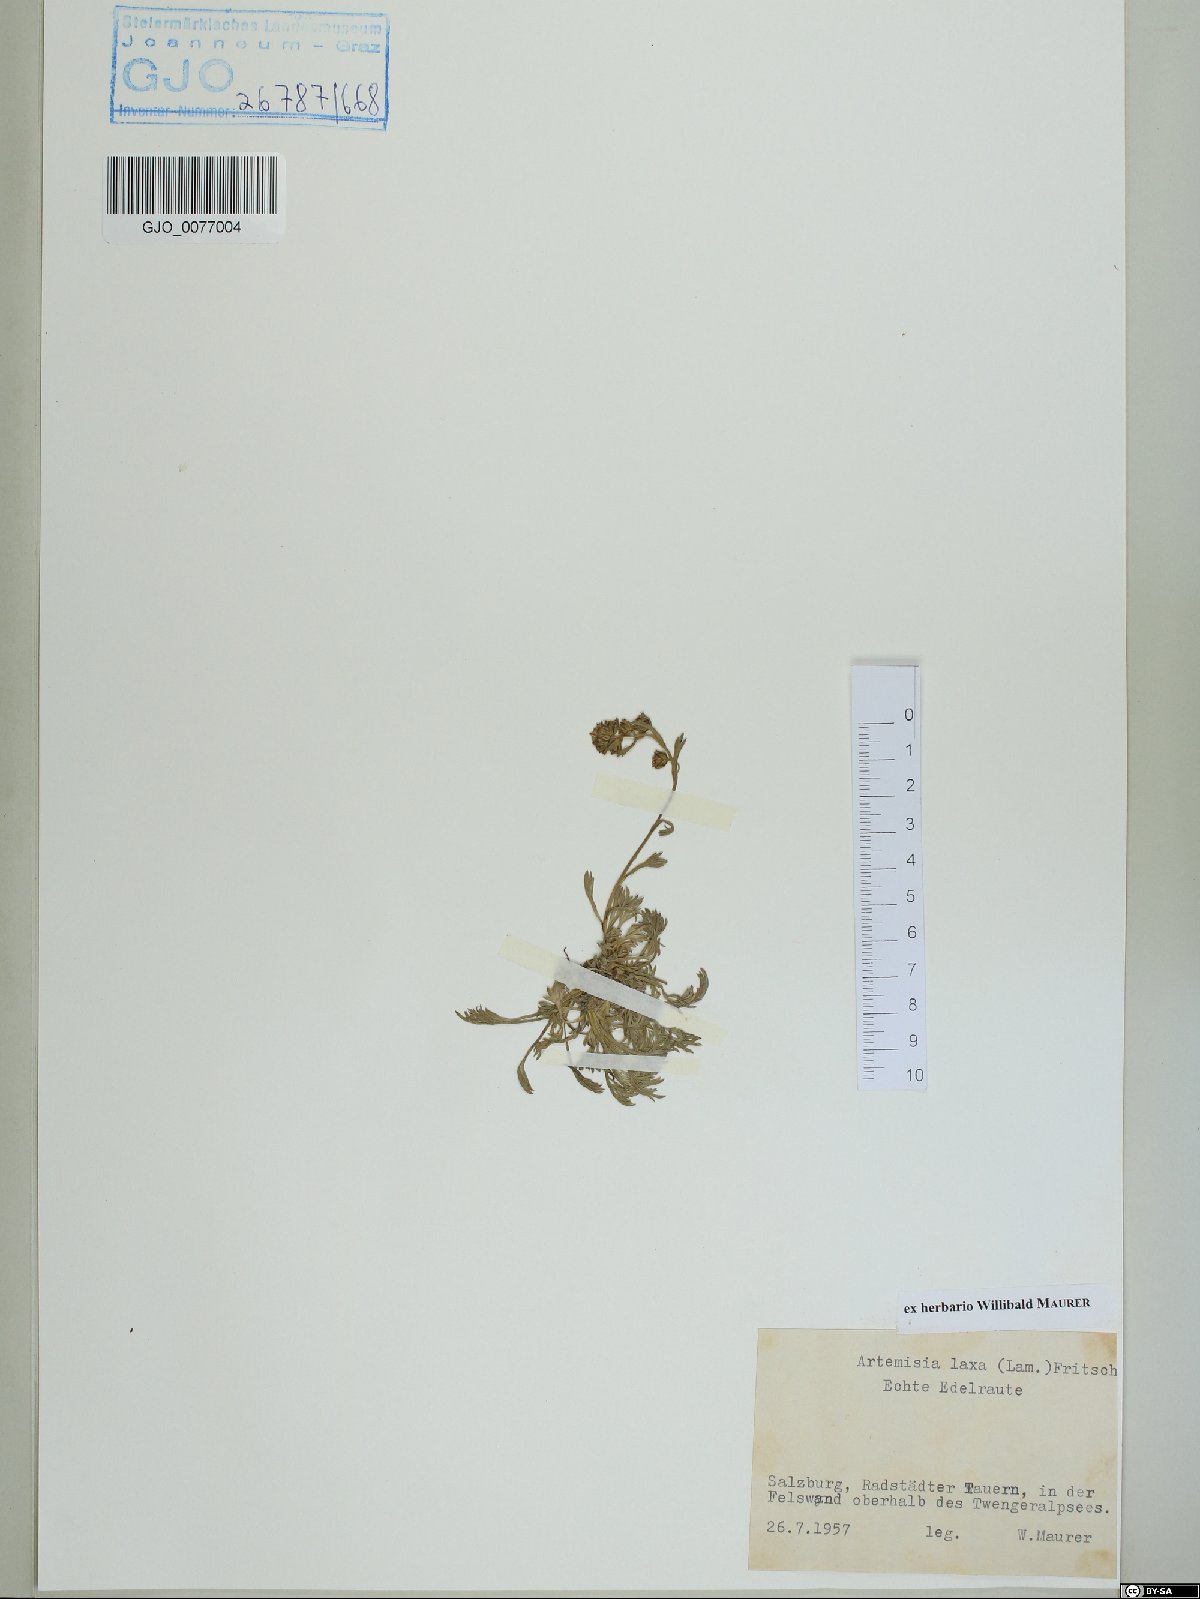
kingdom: Plantae
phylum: Tracheophyta
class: Magnoliopsida
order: Asterales
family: Asteraceae
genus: Artemisia
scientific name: Artemisia mutellina
